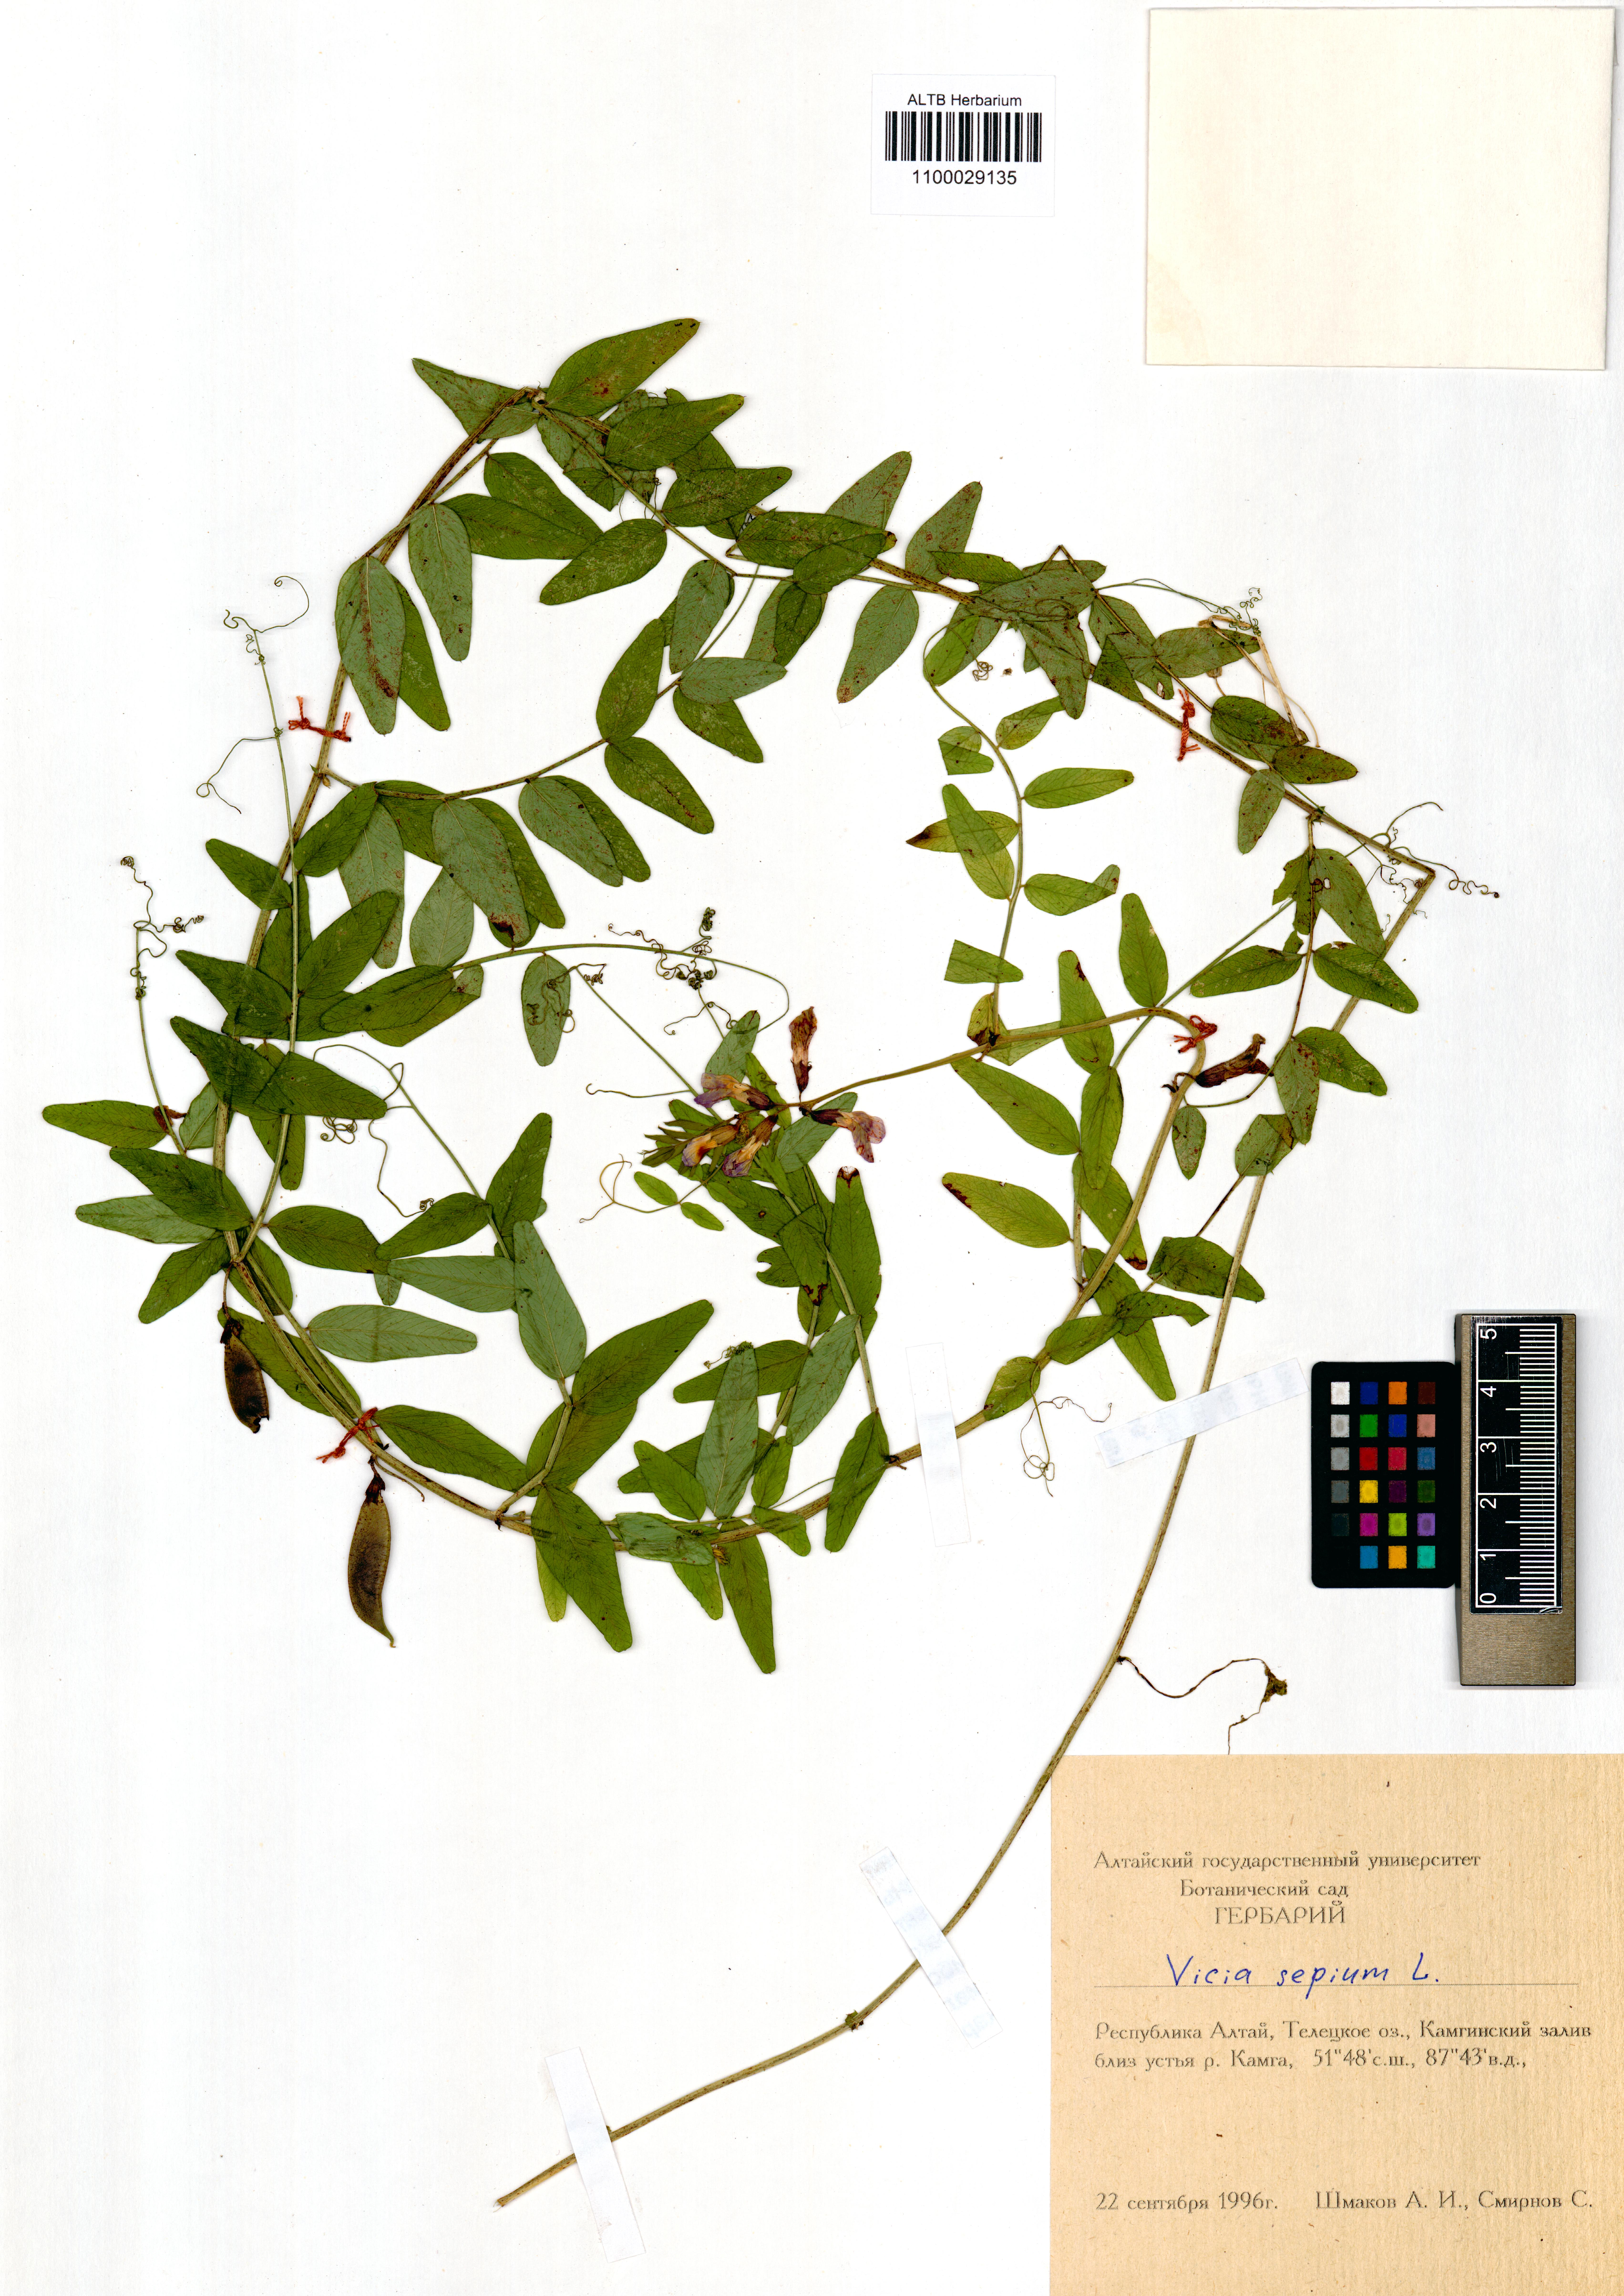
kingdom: Plantae
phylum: Tracheophyta
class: Magnoliopsida
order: Fabales
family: Fabaceae
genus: Vicia
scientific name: Vicia sepium
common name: Bush vetch
